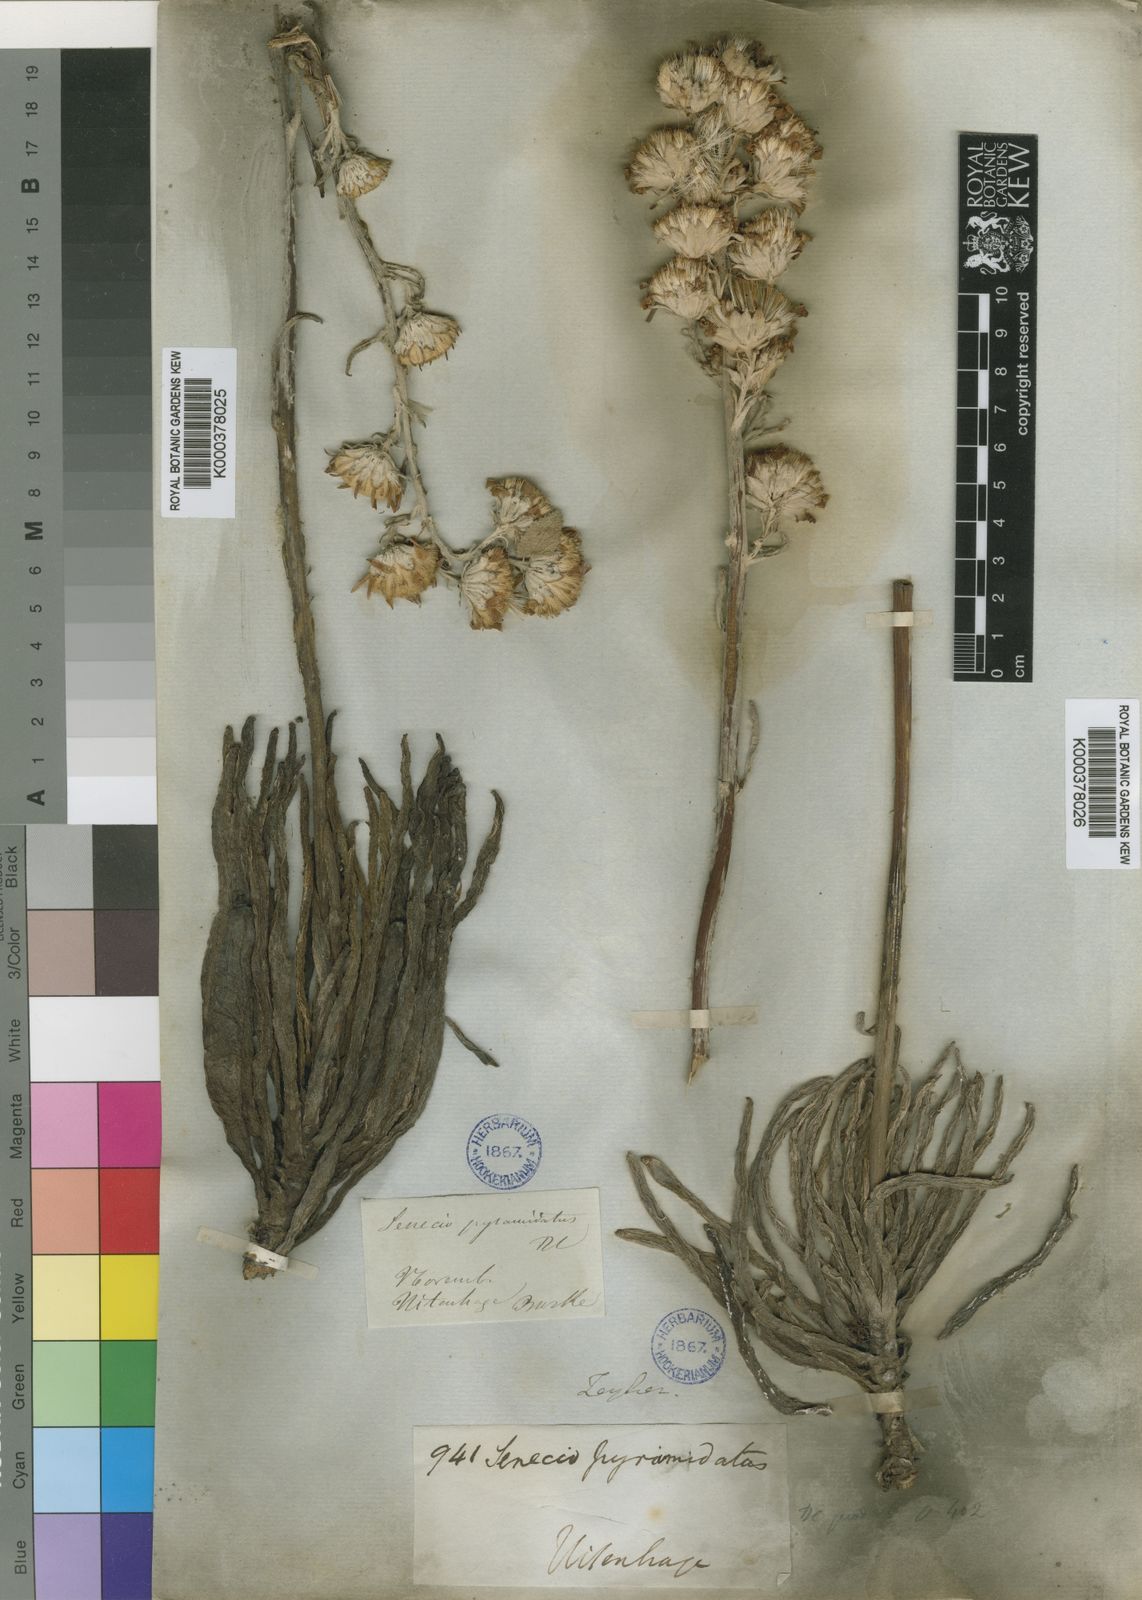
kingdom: Plantae
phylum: Tracheophyta
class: Magnoliopsida
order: Asterales
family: Asteraceae
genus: Caputia
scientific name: Caputia pyramidata
